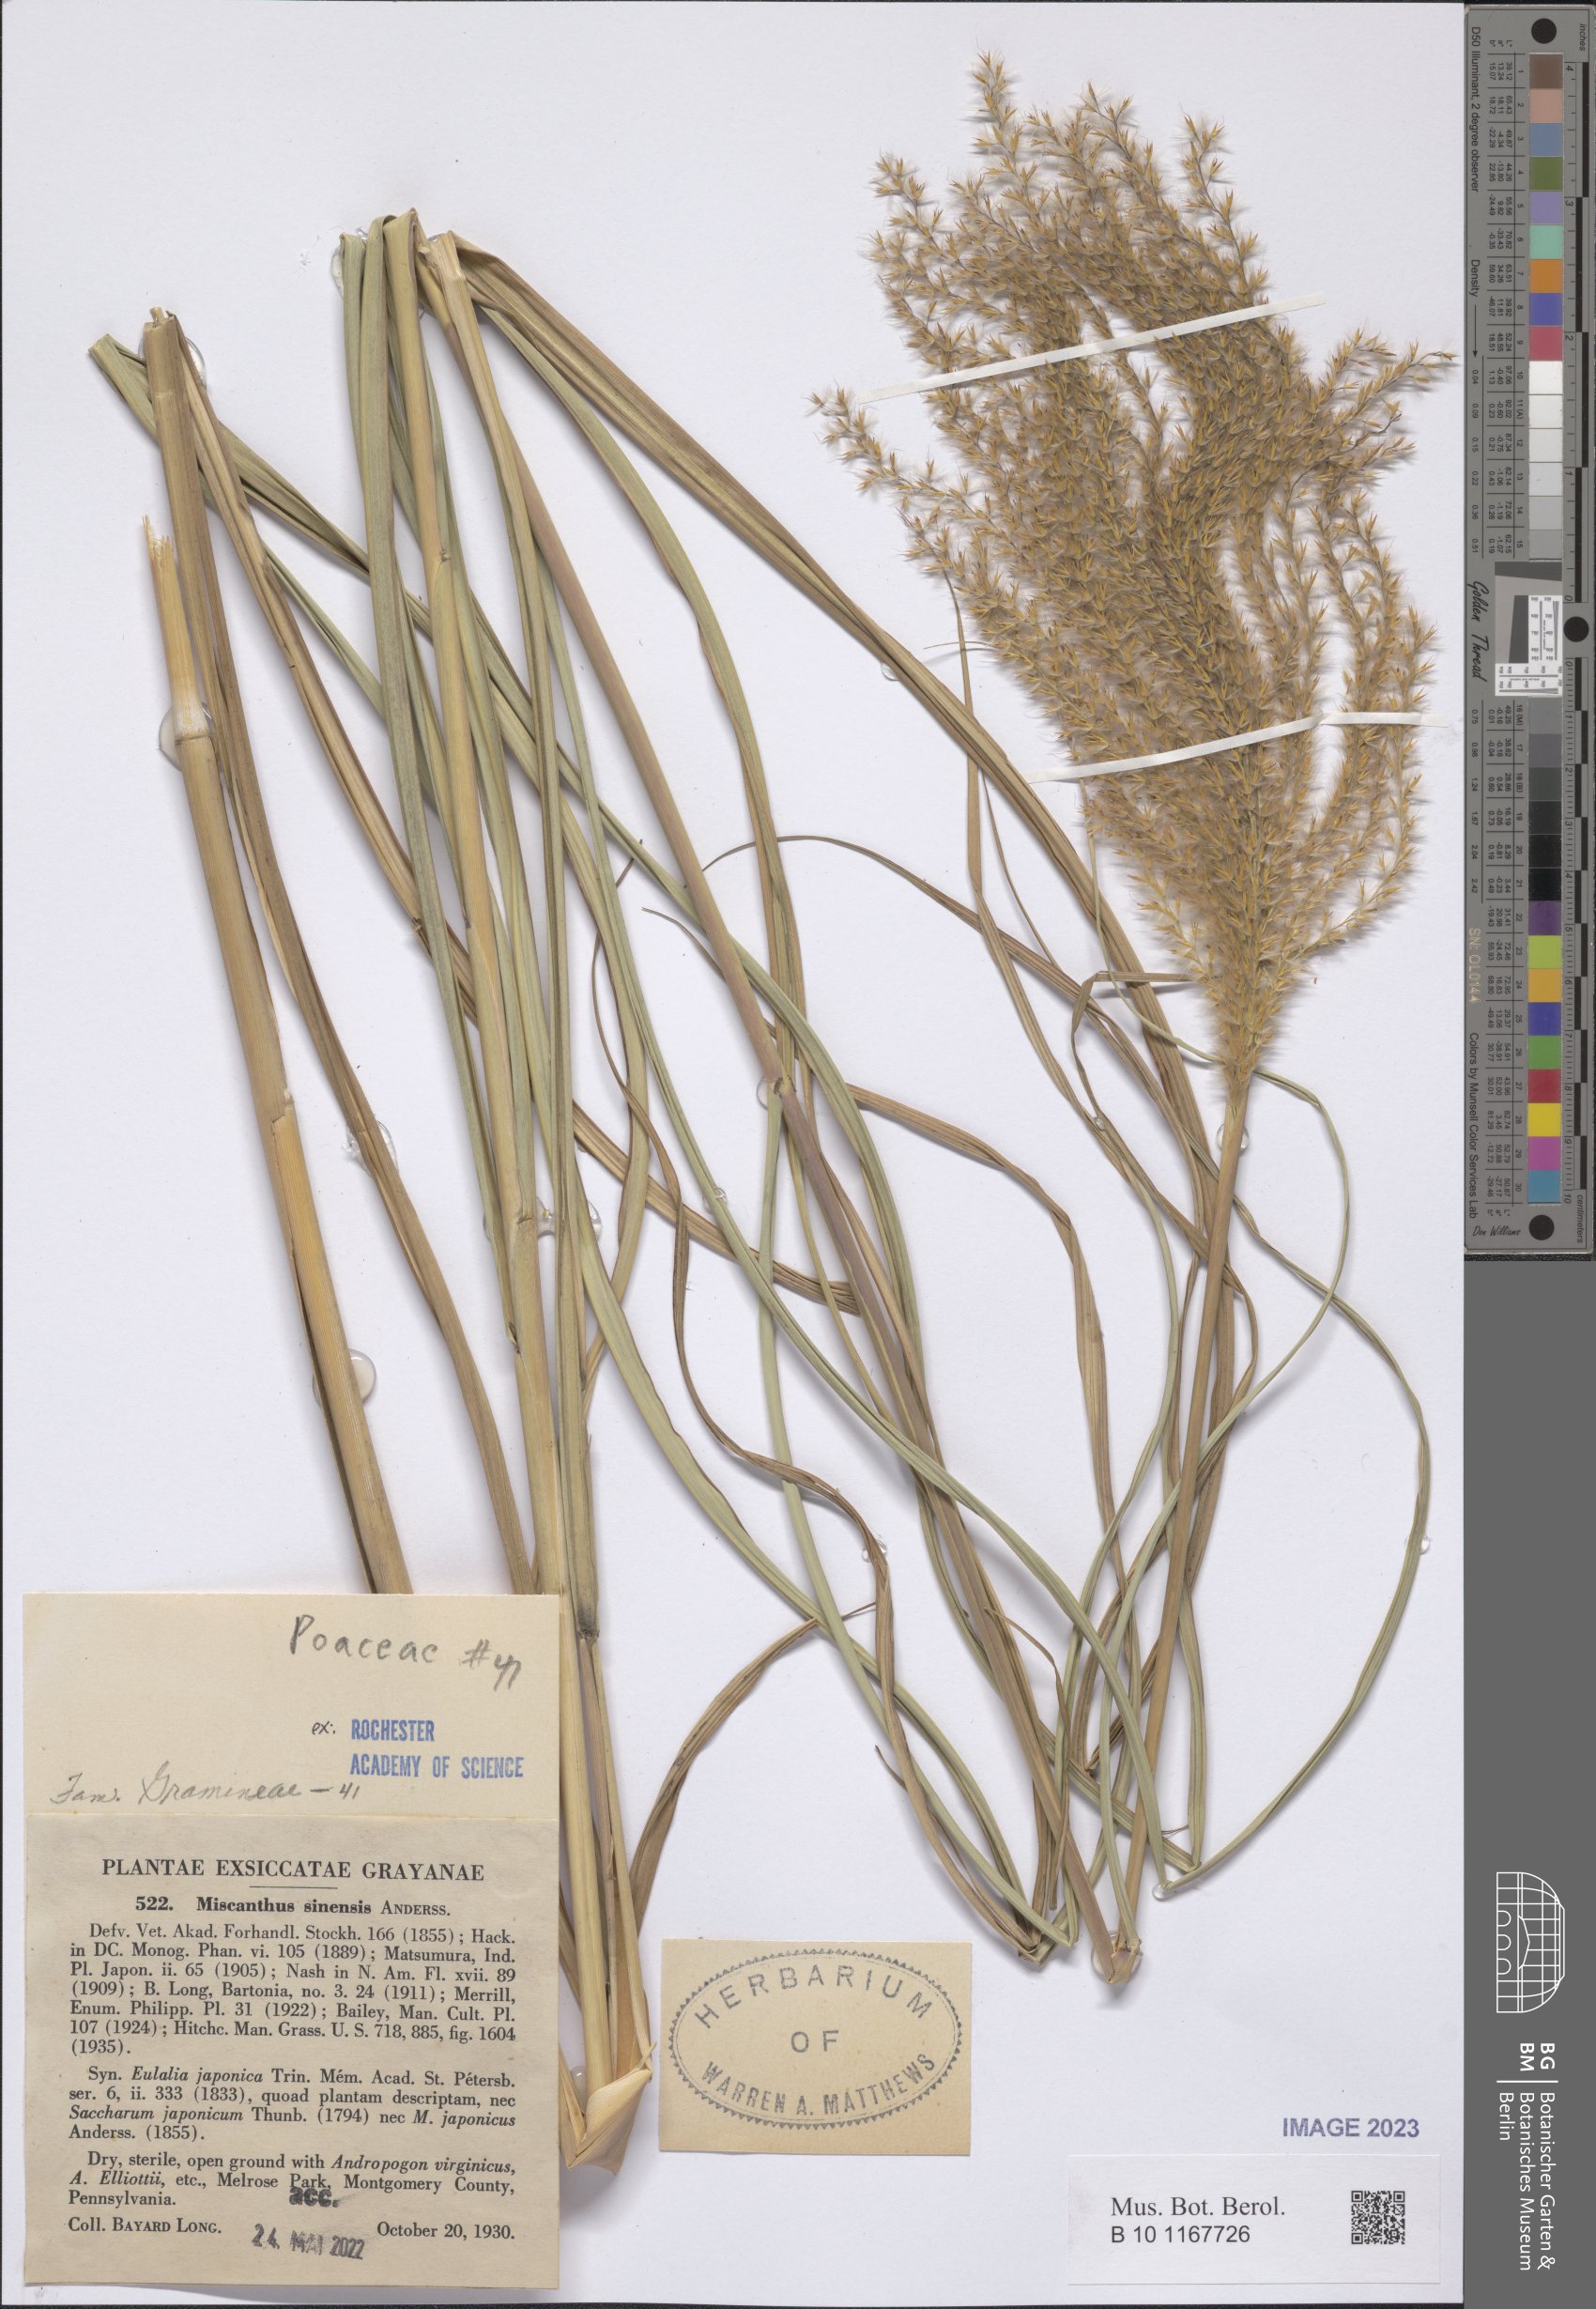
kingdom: Plantae
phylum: Tracheophyta
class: Liliopsida
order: Poales
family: Poaceae
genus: Miscanthus
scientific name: Miscanthus sinensis
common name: Chinese silvergrass
